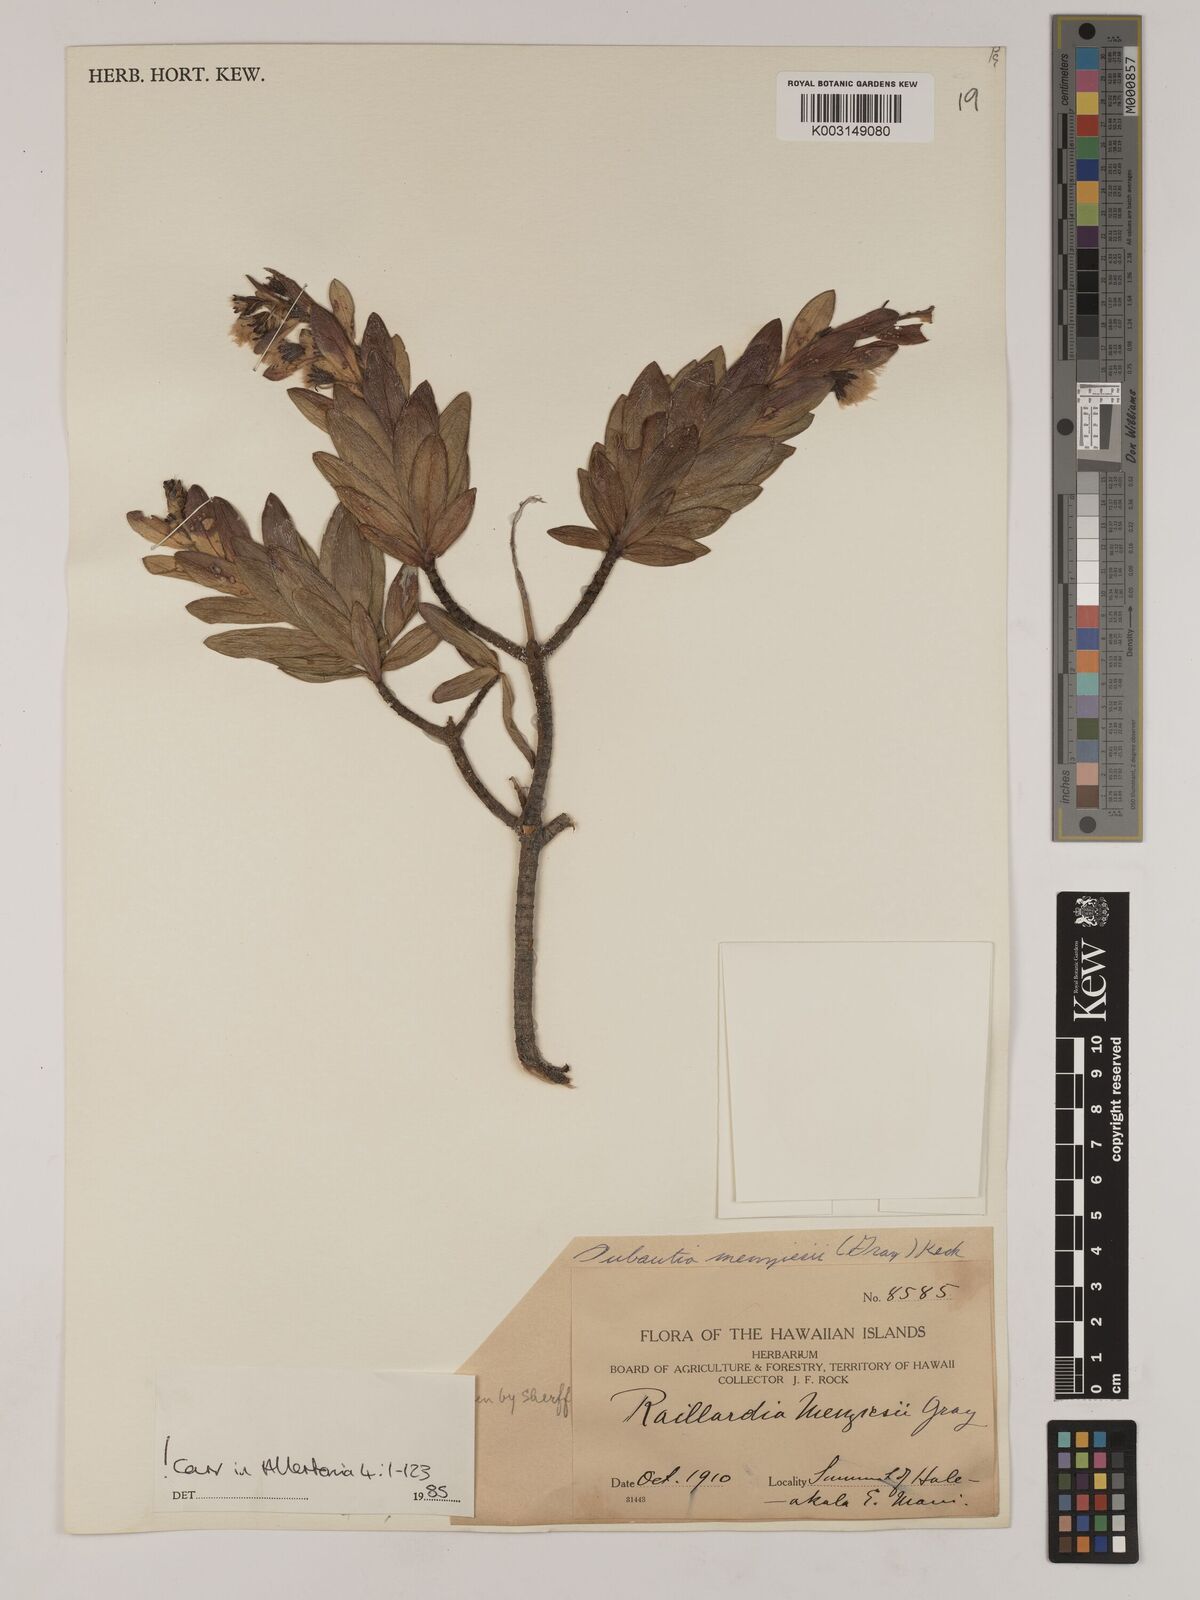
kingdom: Plantae
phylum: Tracheophyta
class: Magnoliopsida
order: Asterales
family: Asteraceae
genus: Dubautia
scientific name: Dubautia menziesii
